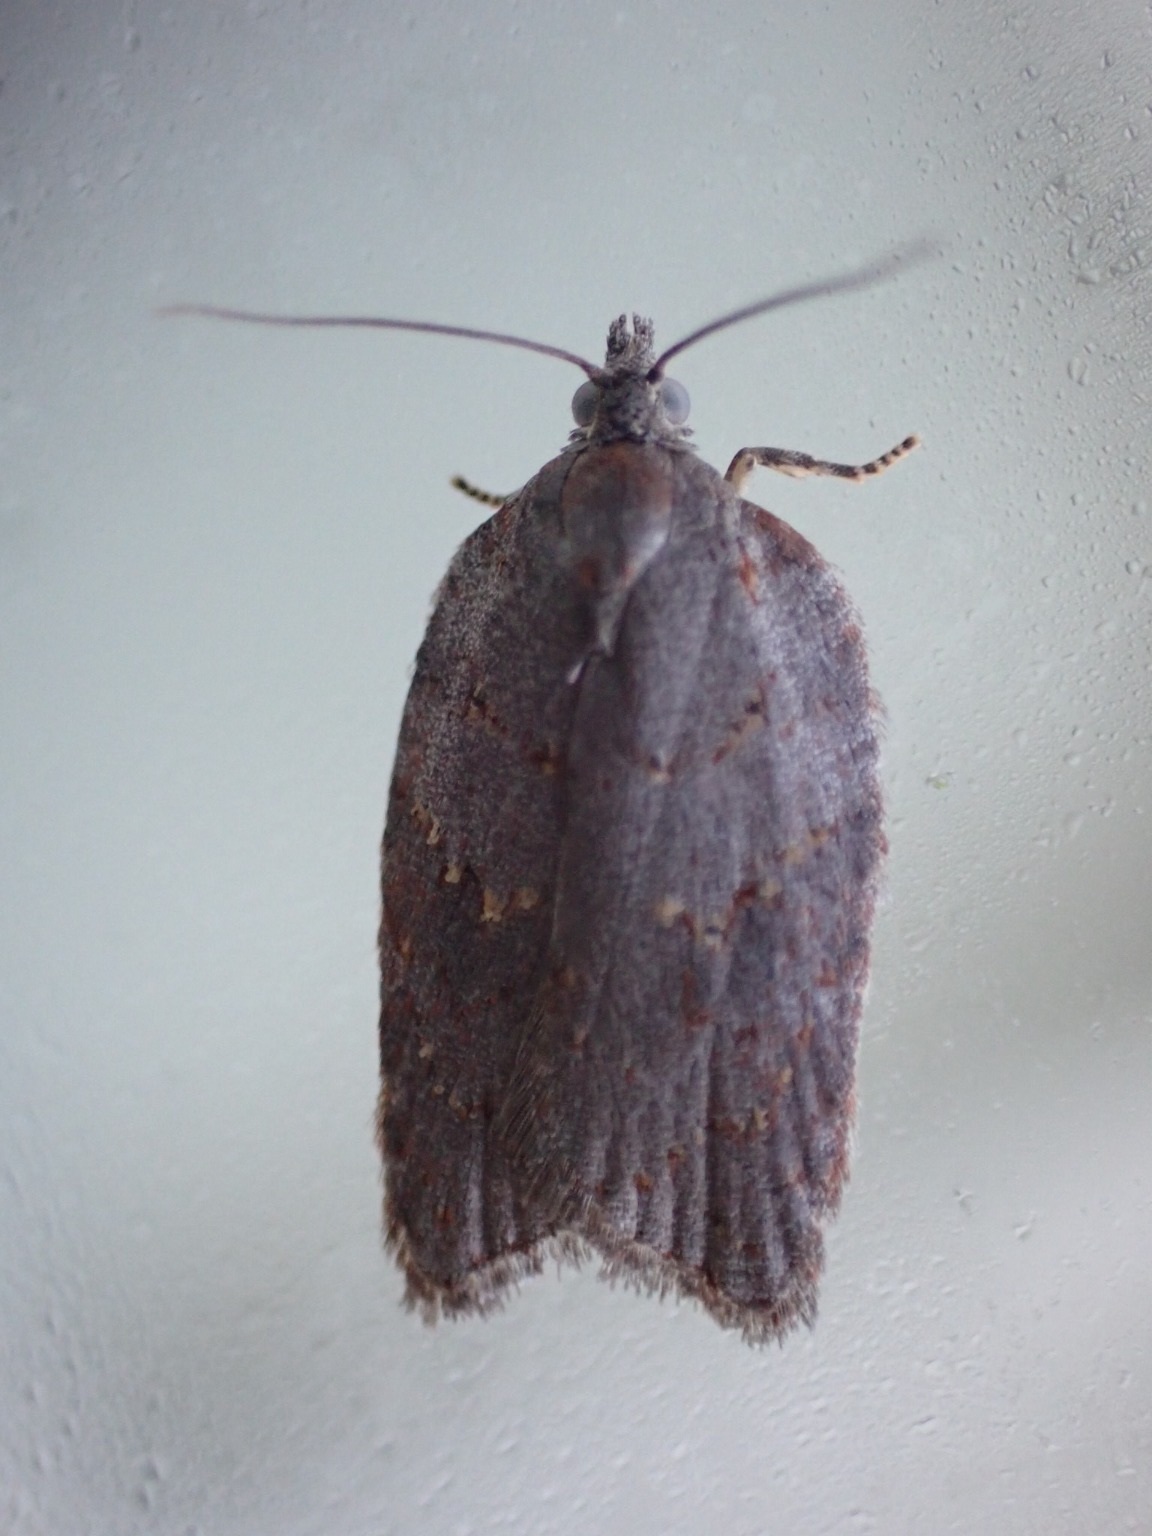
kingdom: Animalia
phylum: Arthropoda
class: Insecta
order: Lepidoptera
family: Tortricidae
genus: Acleris
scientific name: Acleris sparsana
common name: Bøgevintervikler
